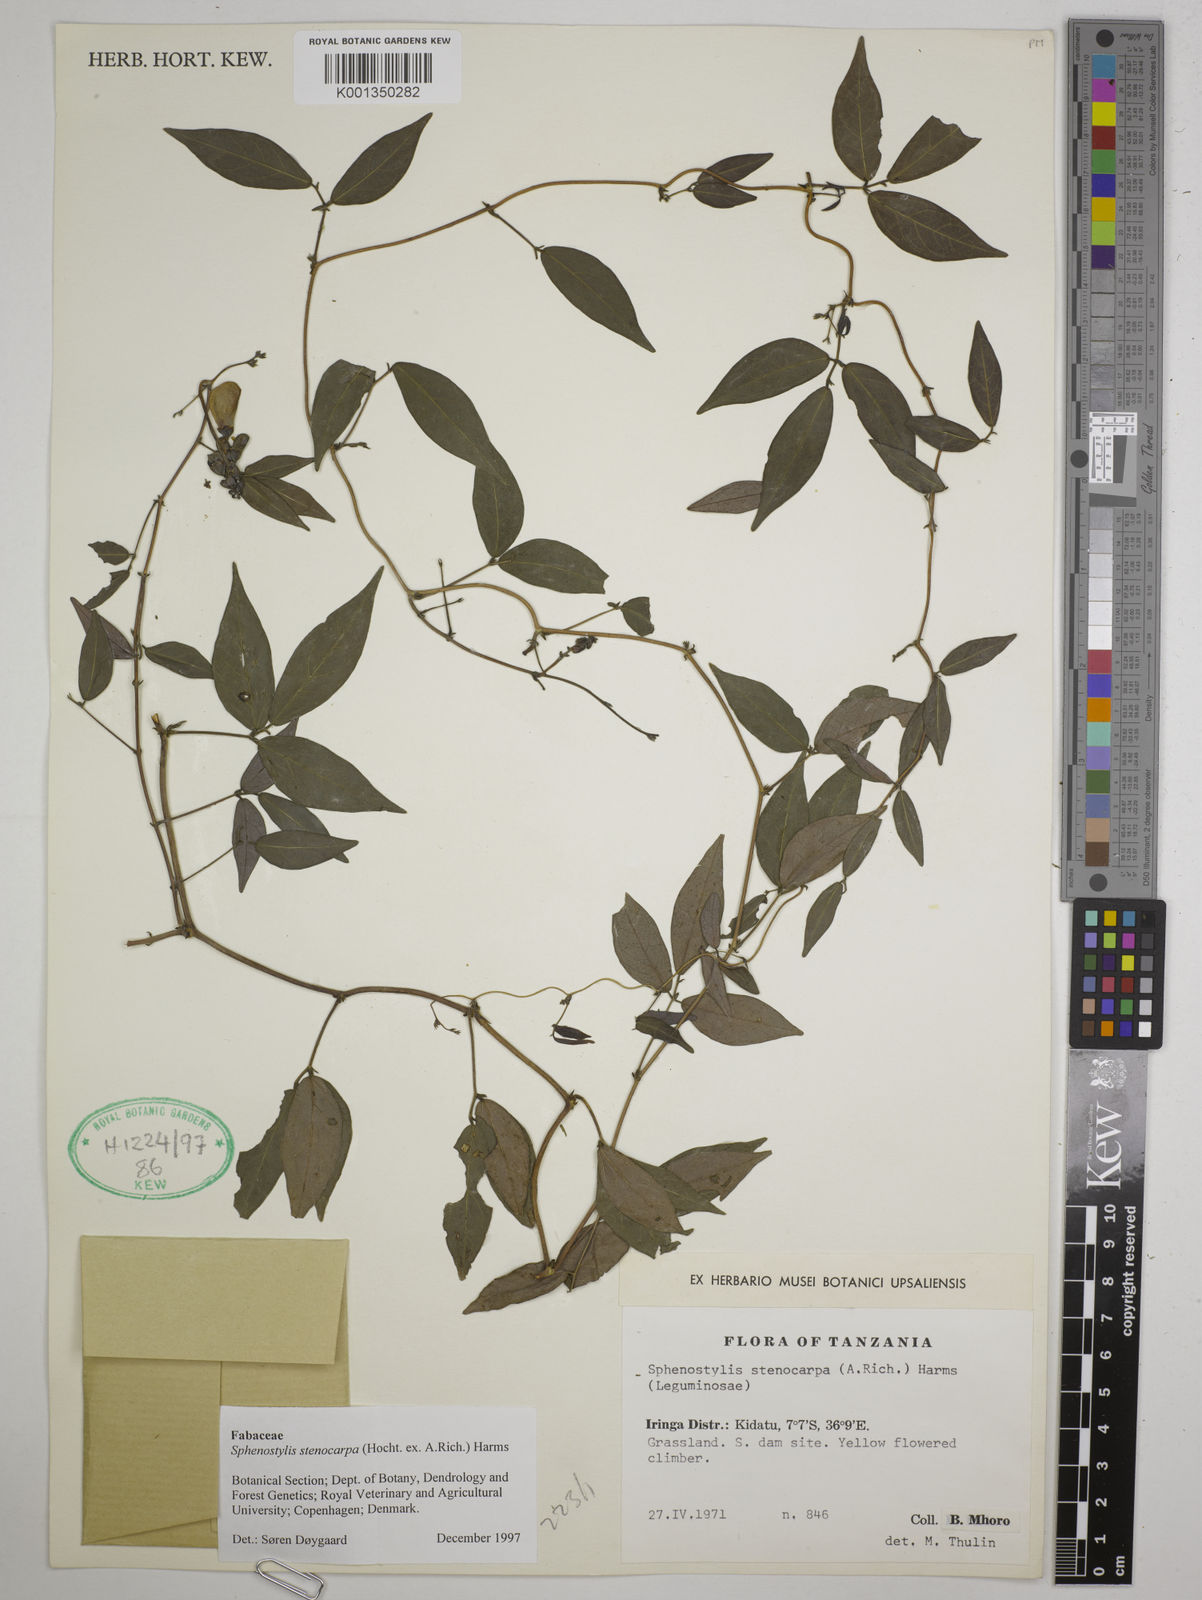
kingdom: Plantae
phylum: Tracheophyta
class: Magnoliopsida
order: Fabales
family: Fabaceae
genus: Sphenostylis
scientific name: Sphenostylis stenocarpa
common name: Yam-pea
